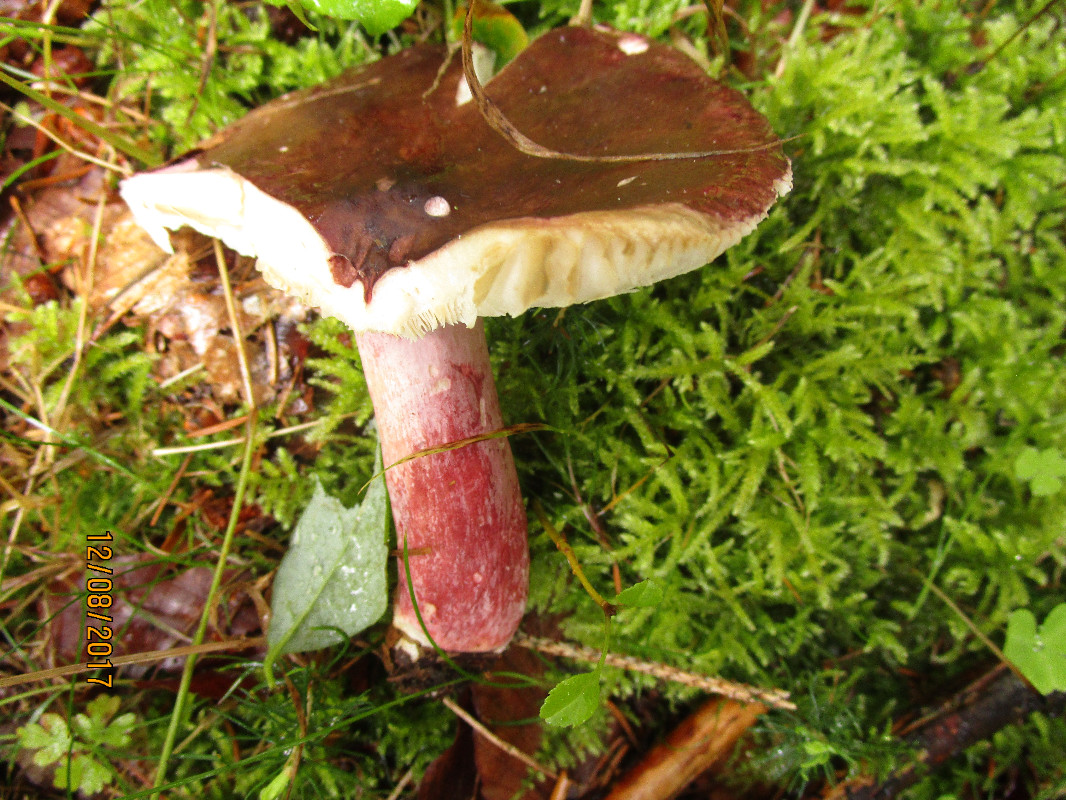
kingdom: Fungi
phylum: Basidiomycota
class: Agaricomycetes
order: Russulales
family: Russulaceae
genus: Russula
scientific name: Russula queletii
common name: Quélets skørhat
